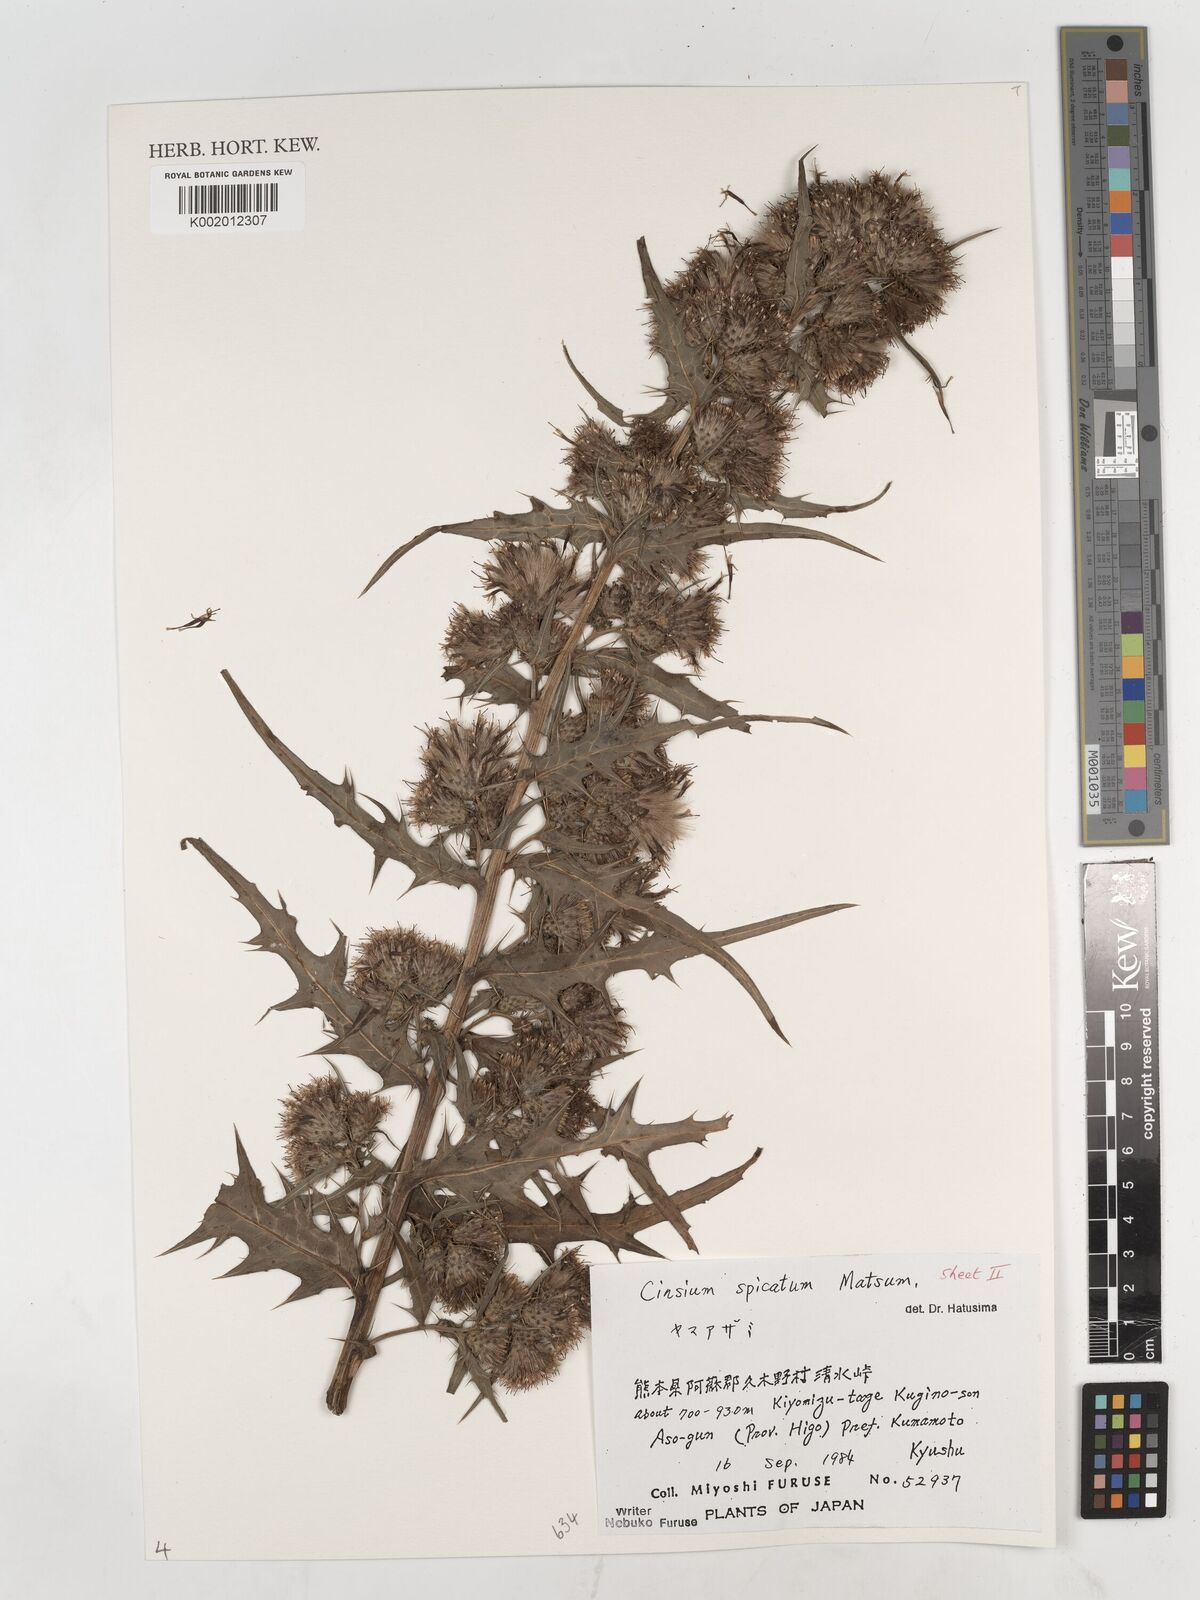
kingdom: Plantae
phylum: Tracheophyta
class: Magnoliopsida
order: Asterales
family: Asteraceae
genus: Cirsium
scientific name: Cirsium spicatum
